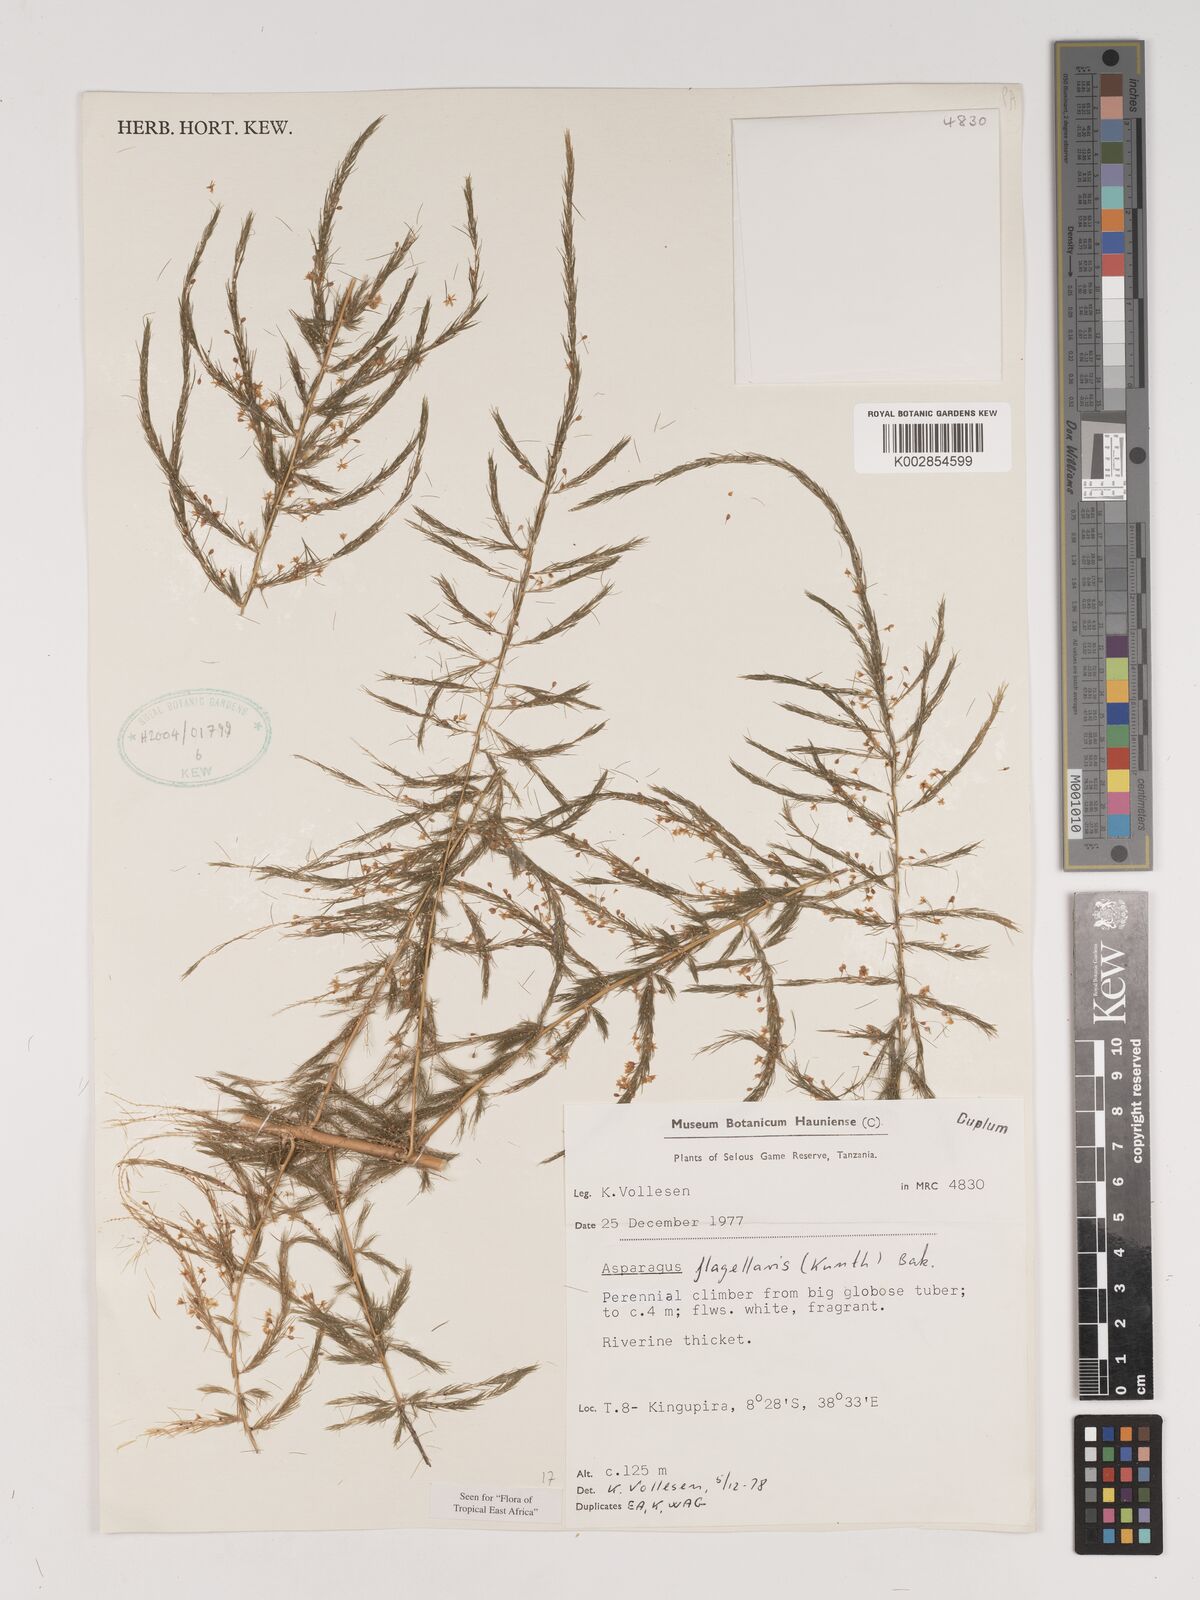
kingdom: Plantae
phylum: Tracheophyta
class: Liliopsida
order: Asparagales
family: Asparagaceae
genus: Asparagus
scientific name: Asparagus flagellaris
